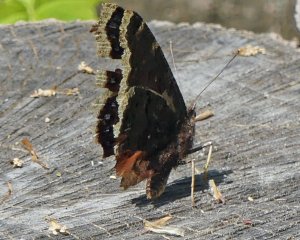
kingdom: Animalia
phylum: Arthropoda
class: Insecta
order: Lepidoptera
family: Nymphalidae
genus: Nymphalis
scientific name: Nymphalis antiopa
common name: Mourning Cloak
